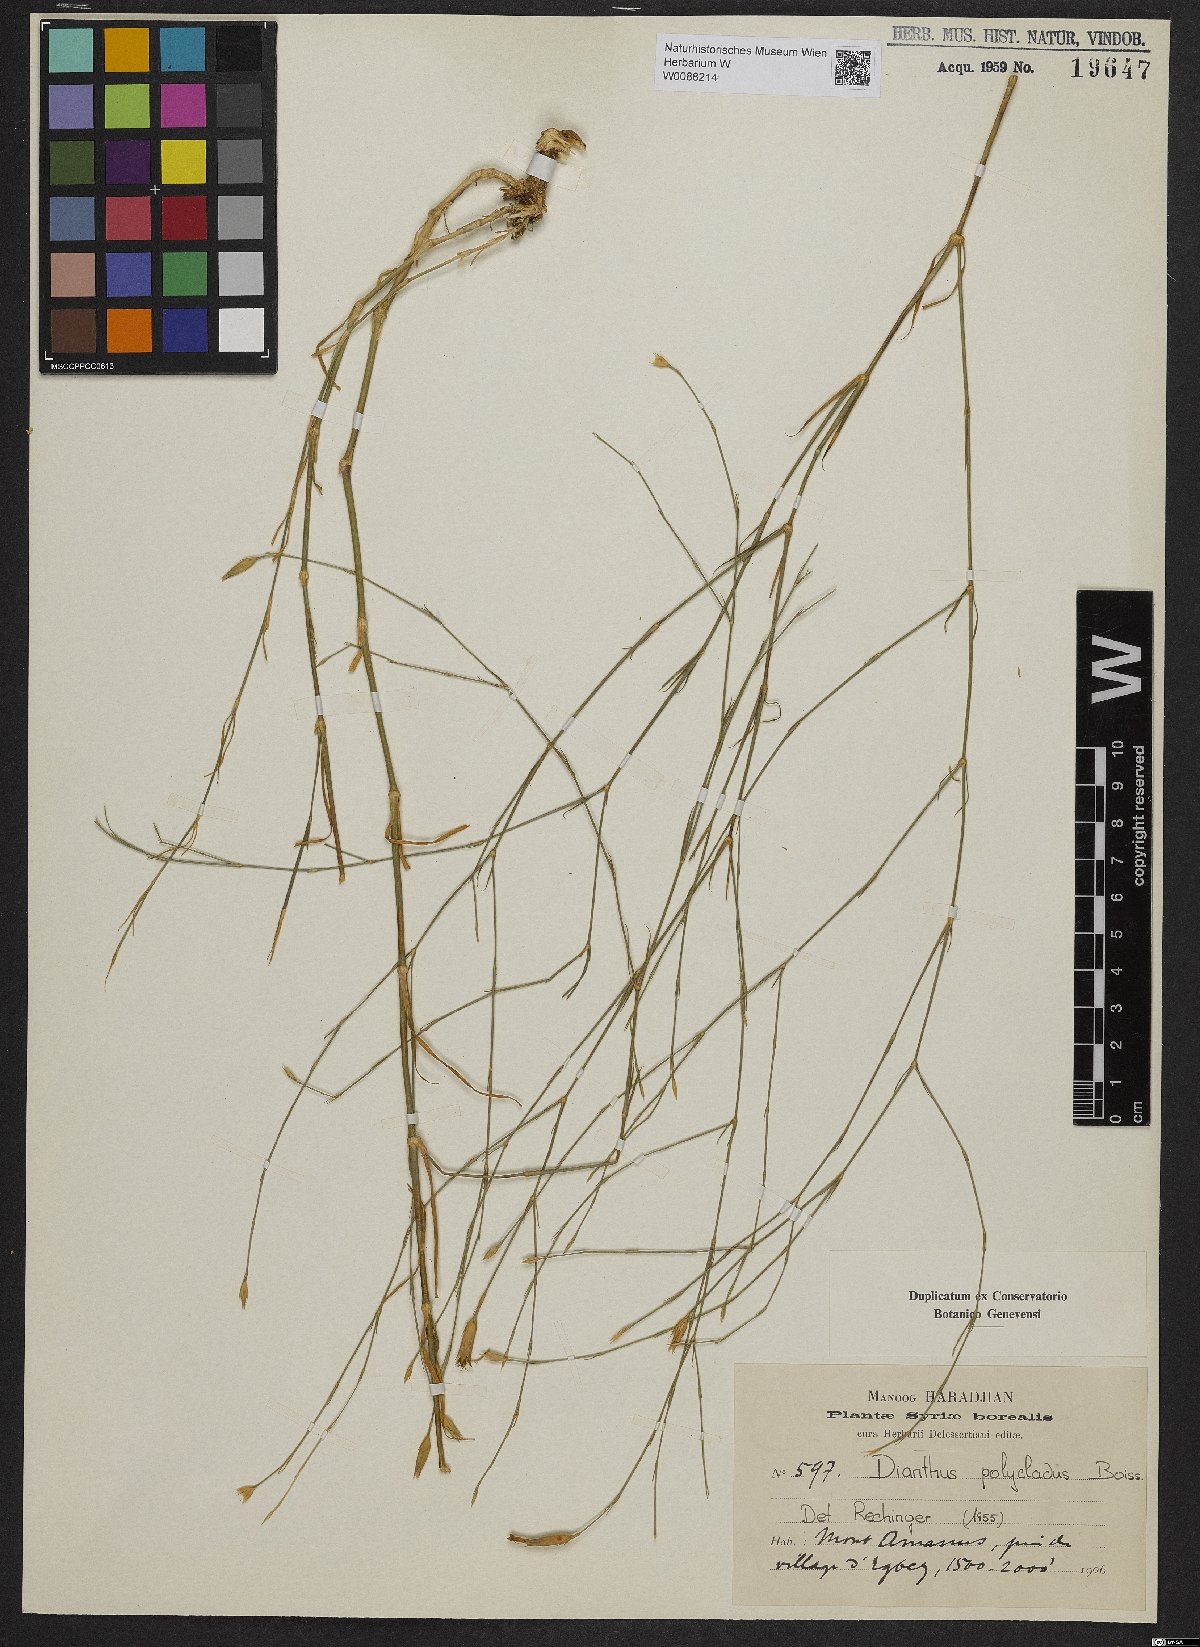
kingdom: Plantae
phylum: Tracheophyta
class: Magnoliopsida
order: Caryophyllales
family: Caryophyllaceae
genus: Dianthus
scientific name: Dianthus strictus
